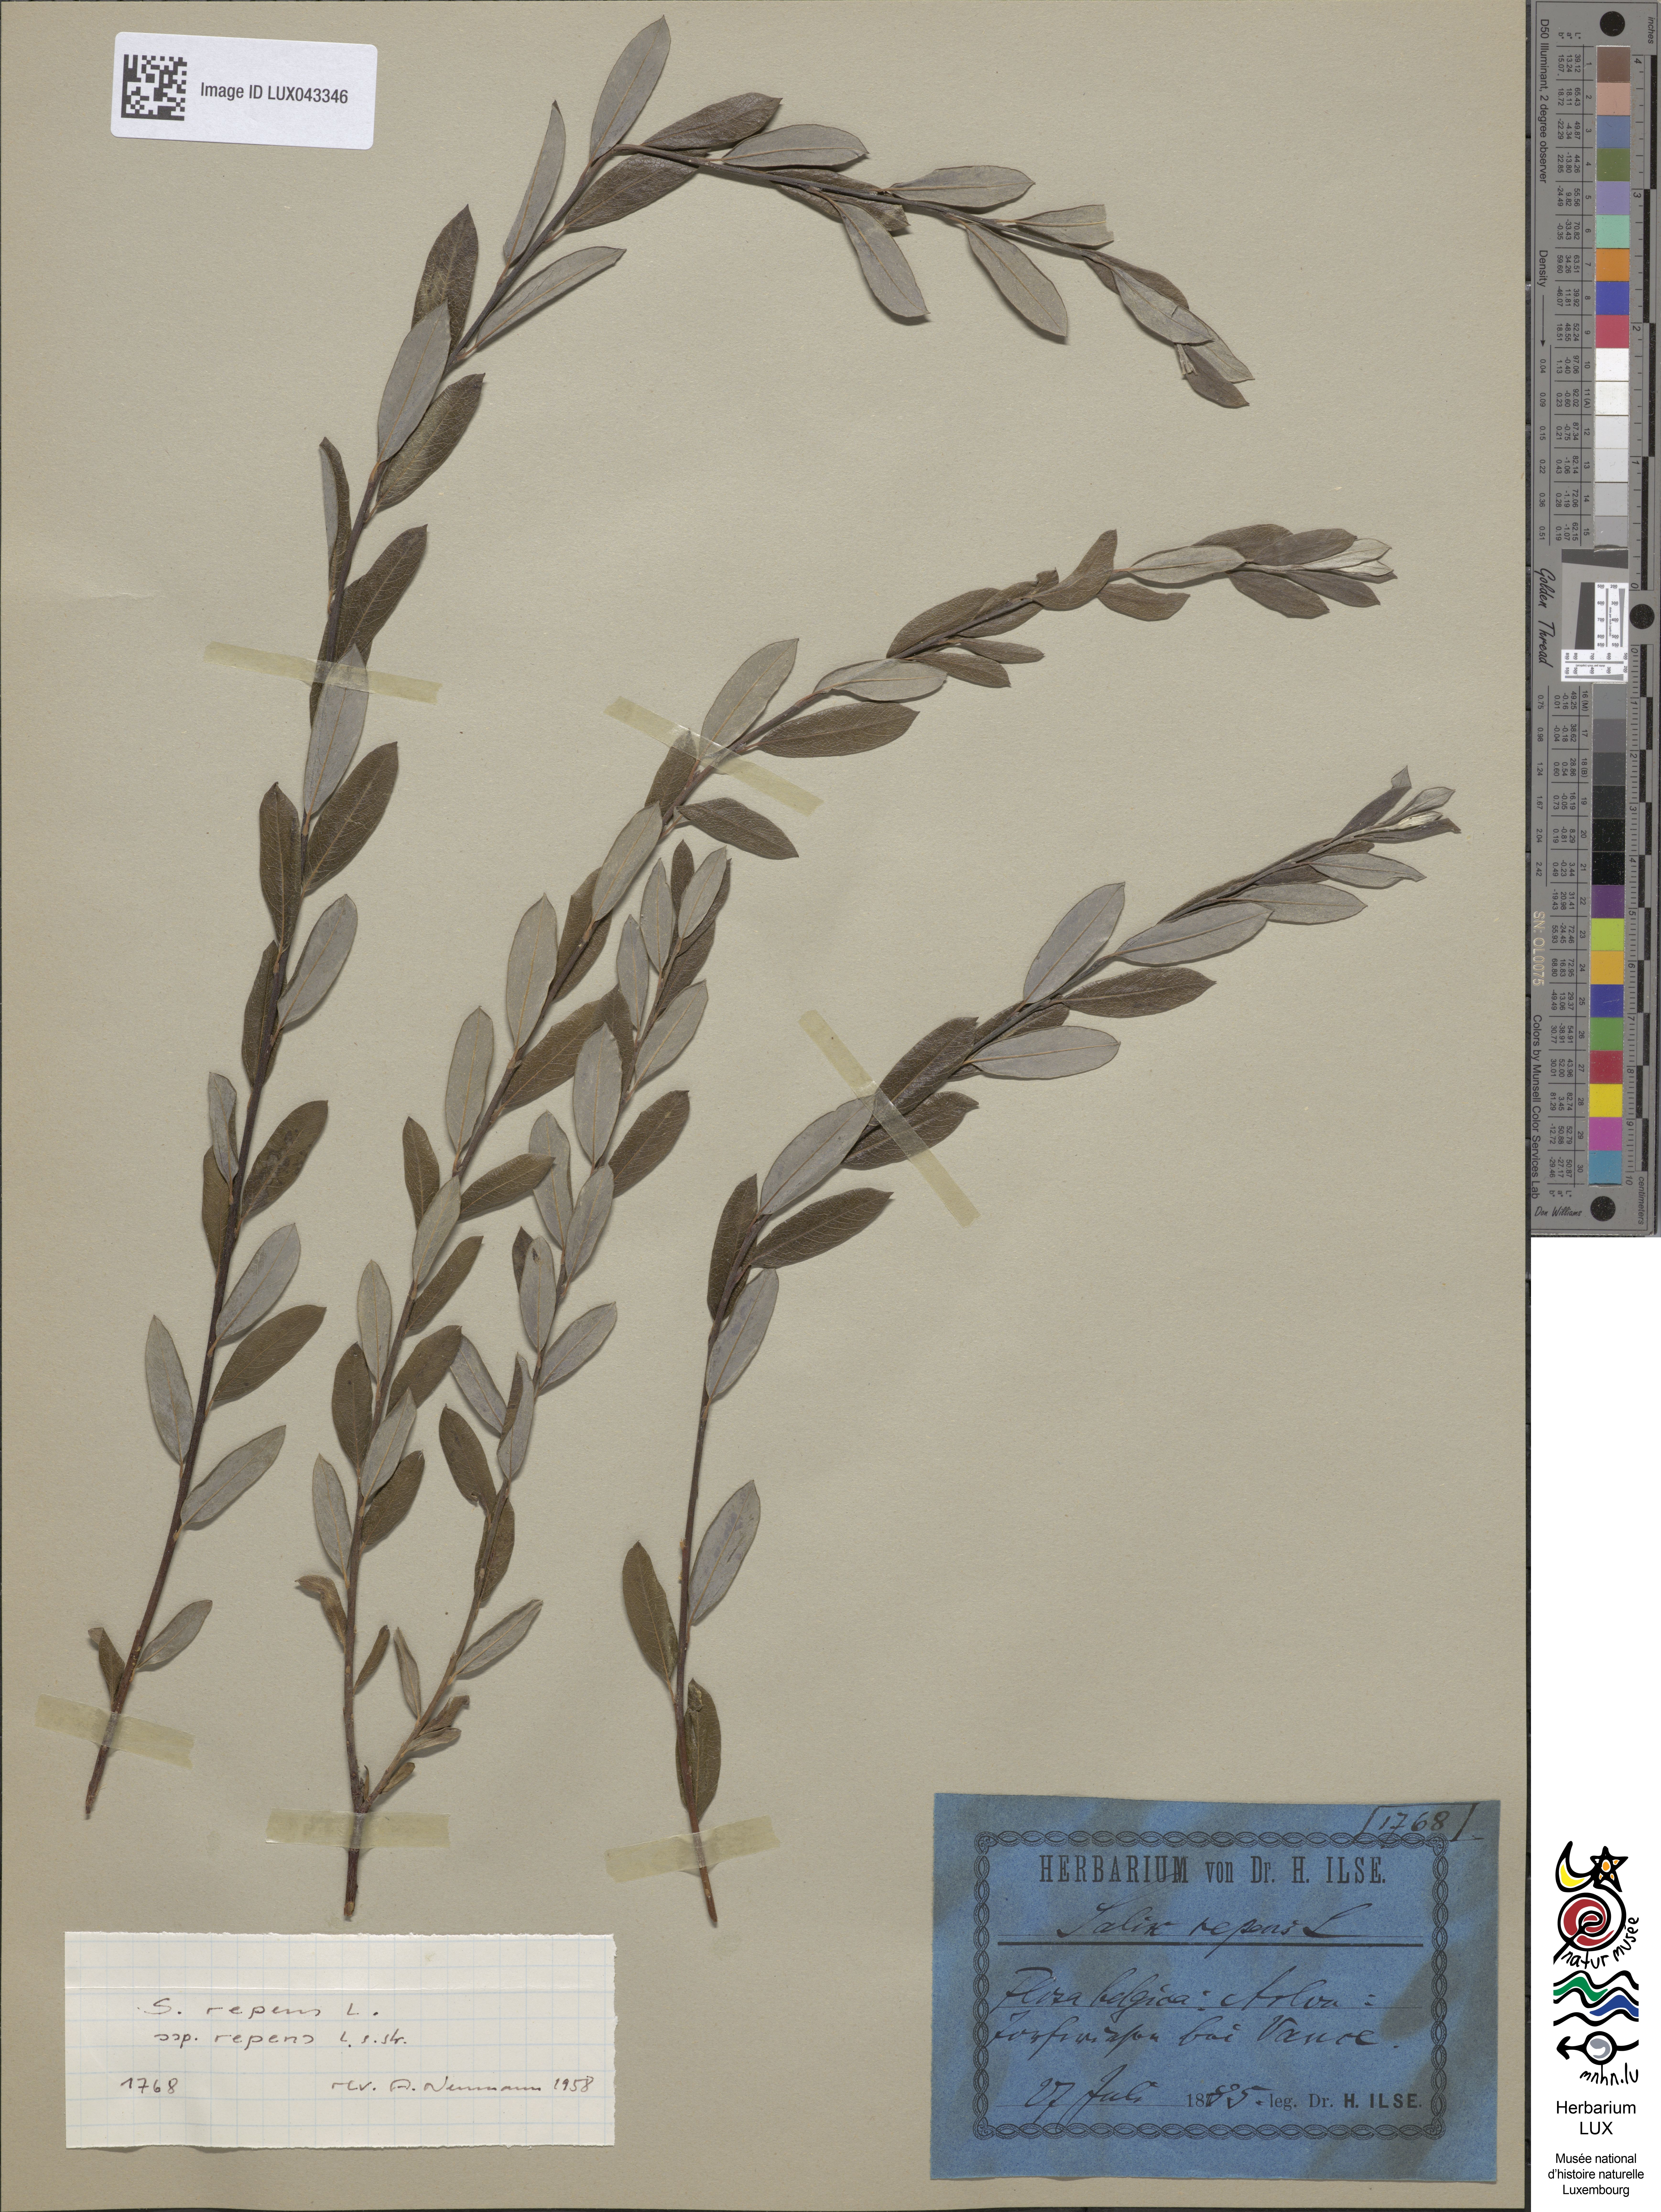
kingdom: Plantae
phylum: Tracheophyta
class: Magnoliopsida
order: Malpighiales
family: Salicaceae
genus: Salix
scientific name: Salix repens
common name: Creeping willow
